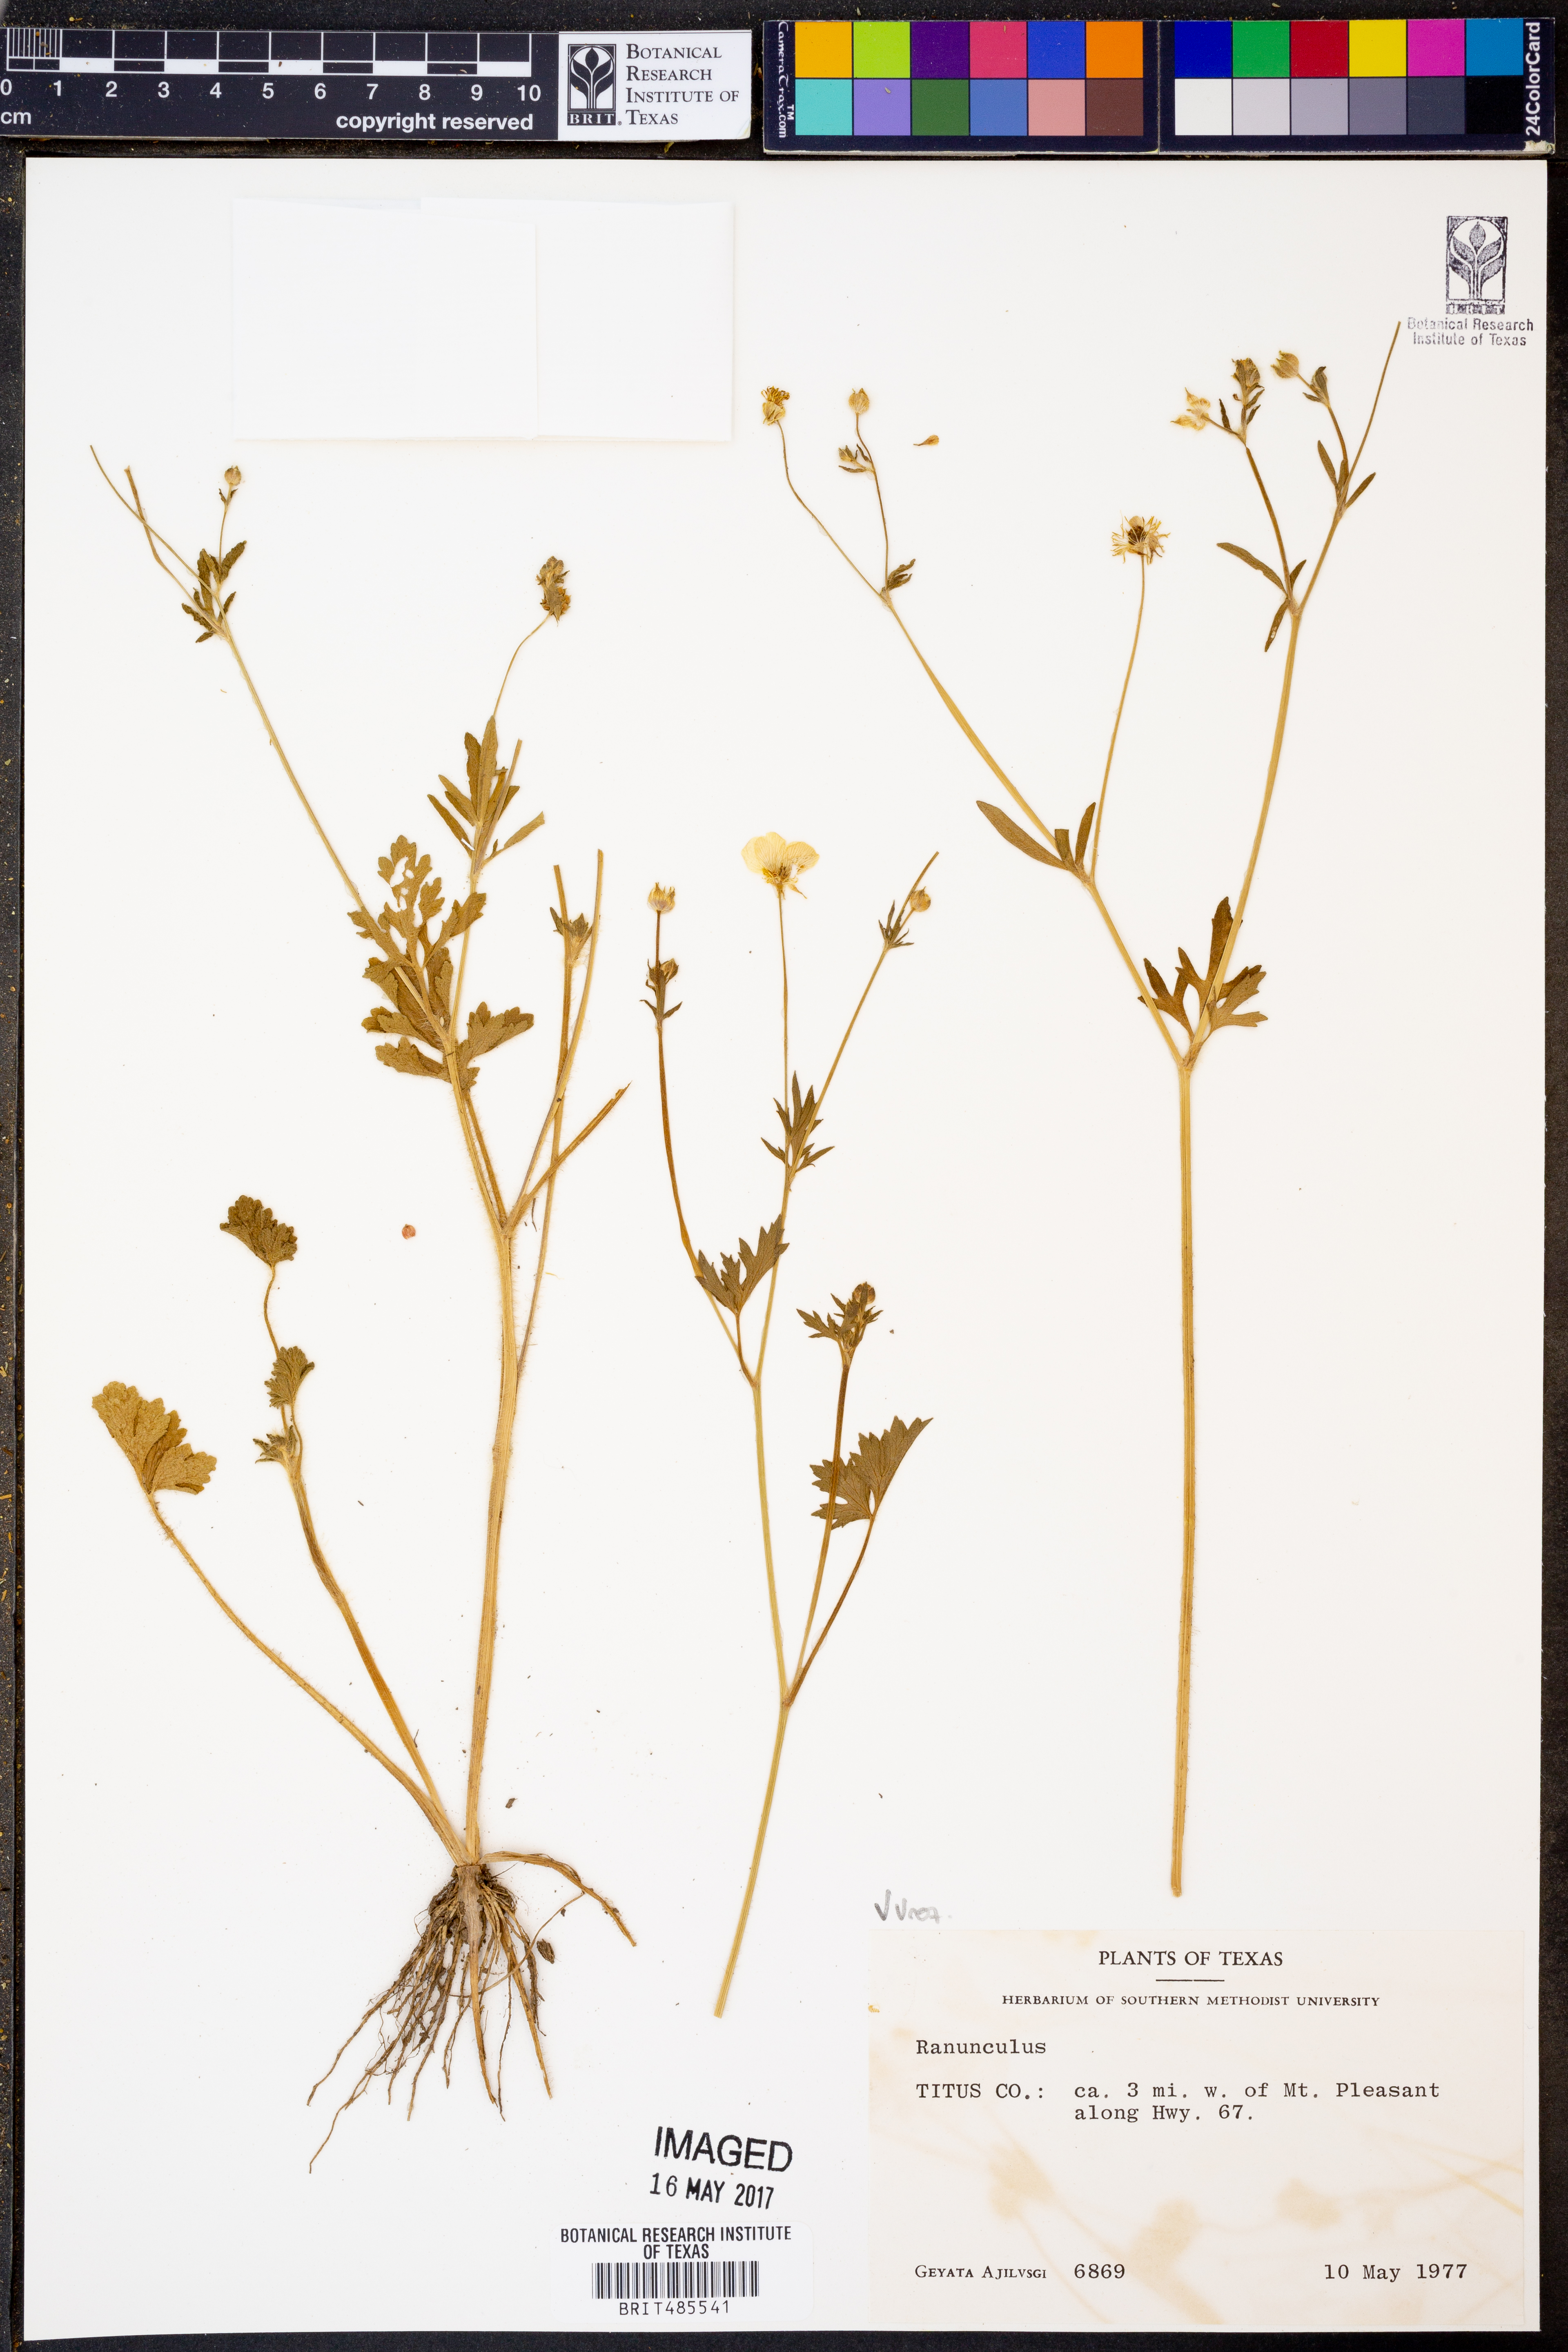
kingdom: Plantae
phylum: Tracheophyta
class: Magnoliopsida
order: Ranunculales
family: Ranunculaceae
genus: Ranunculus
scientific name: Ranunculus
